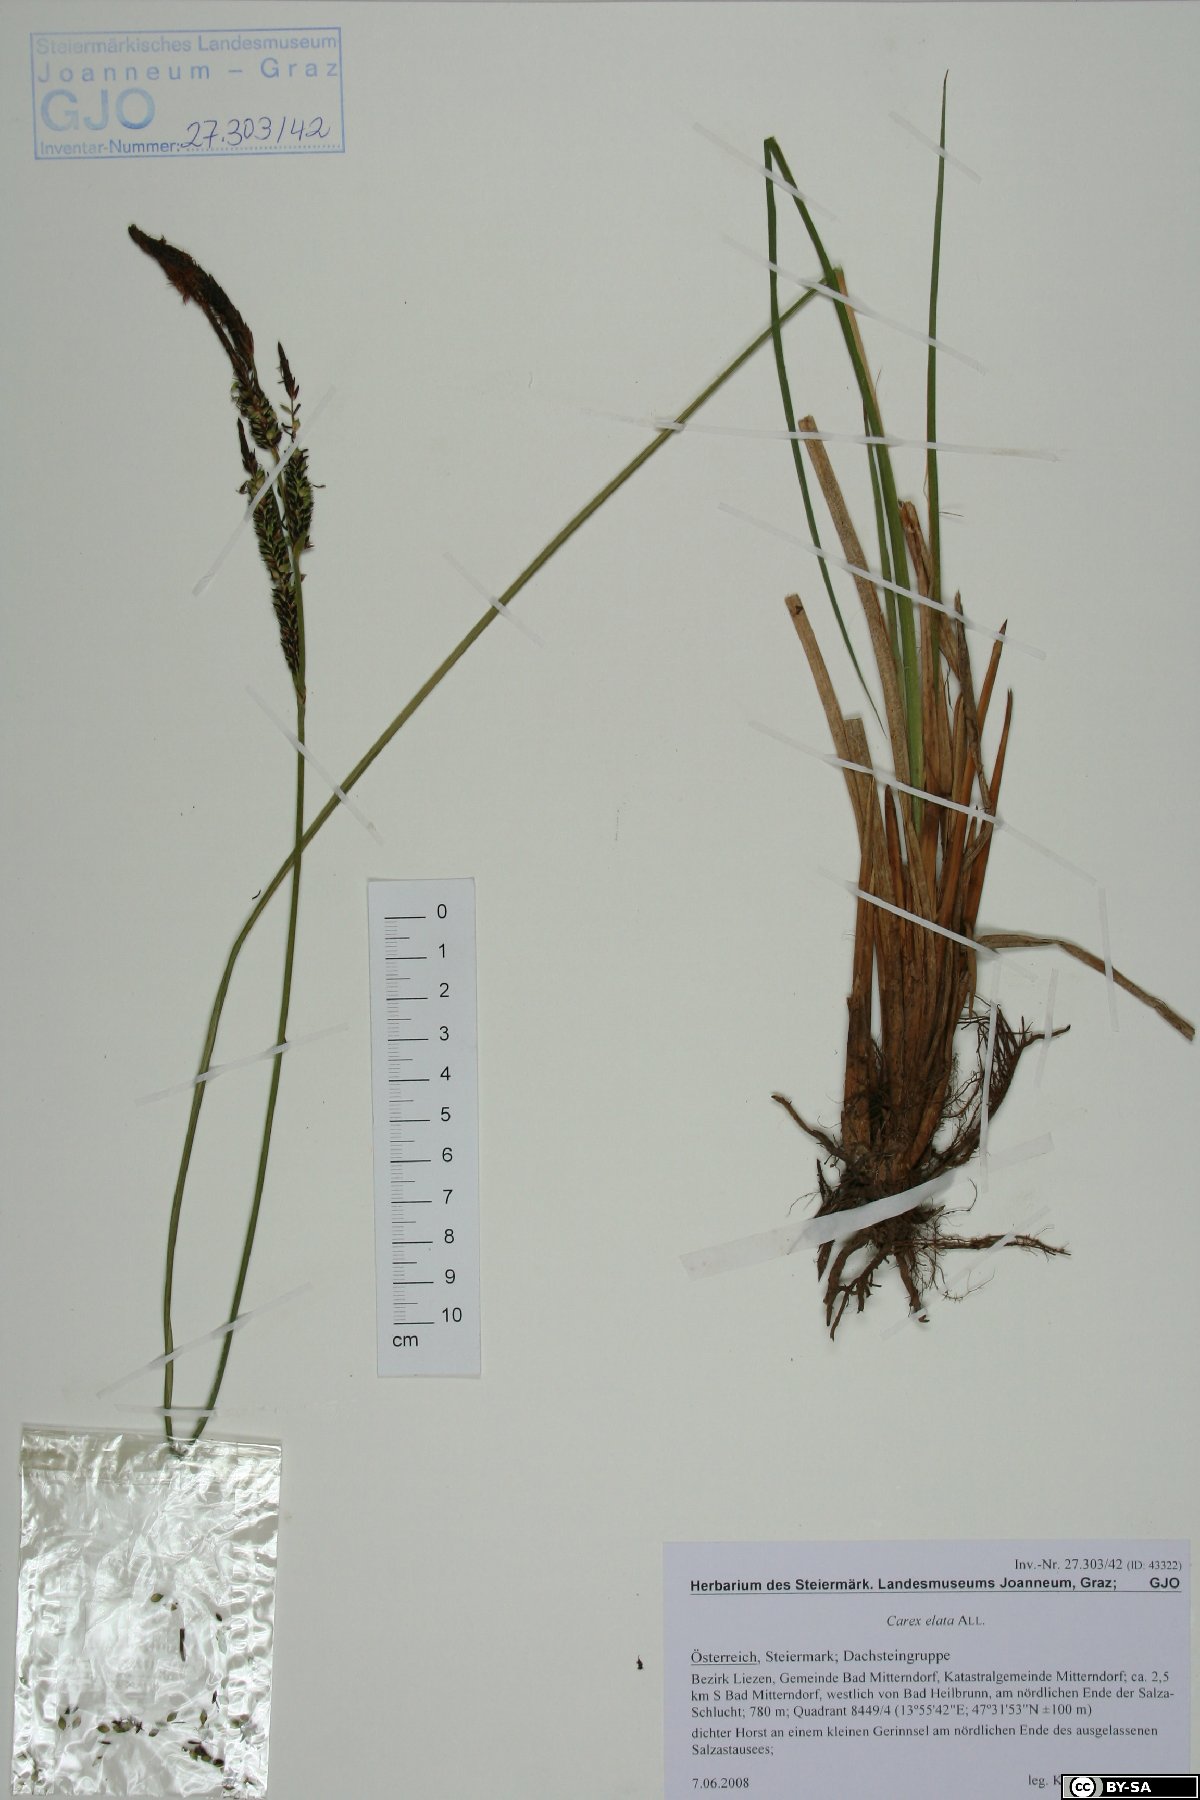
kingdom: Plantae
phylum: Tracheophyta
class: Liliopsida
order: Poales
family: Cyperaceae
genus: Carex
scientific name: Carex elata
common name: Tufted sedge
